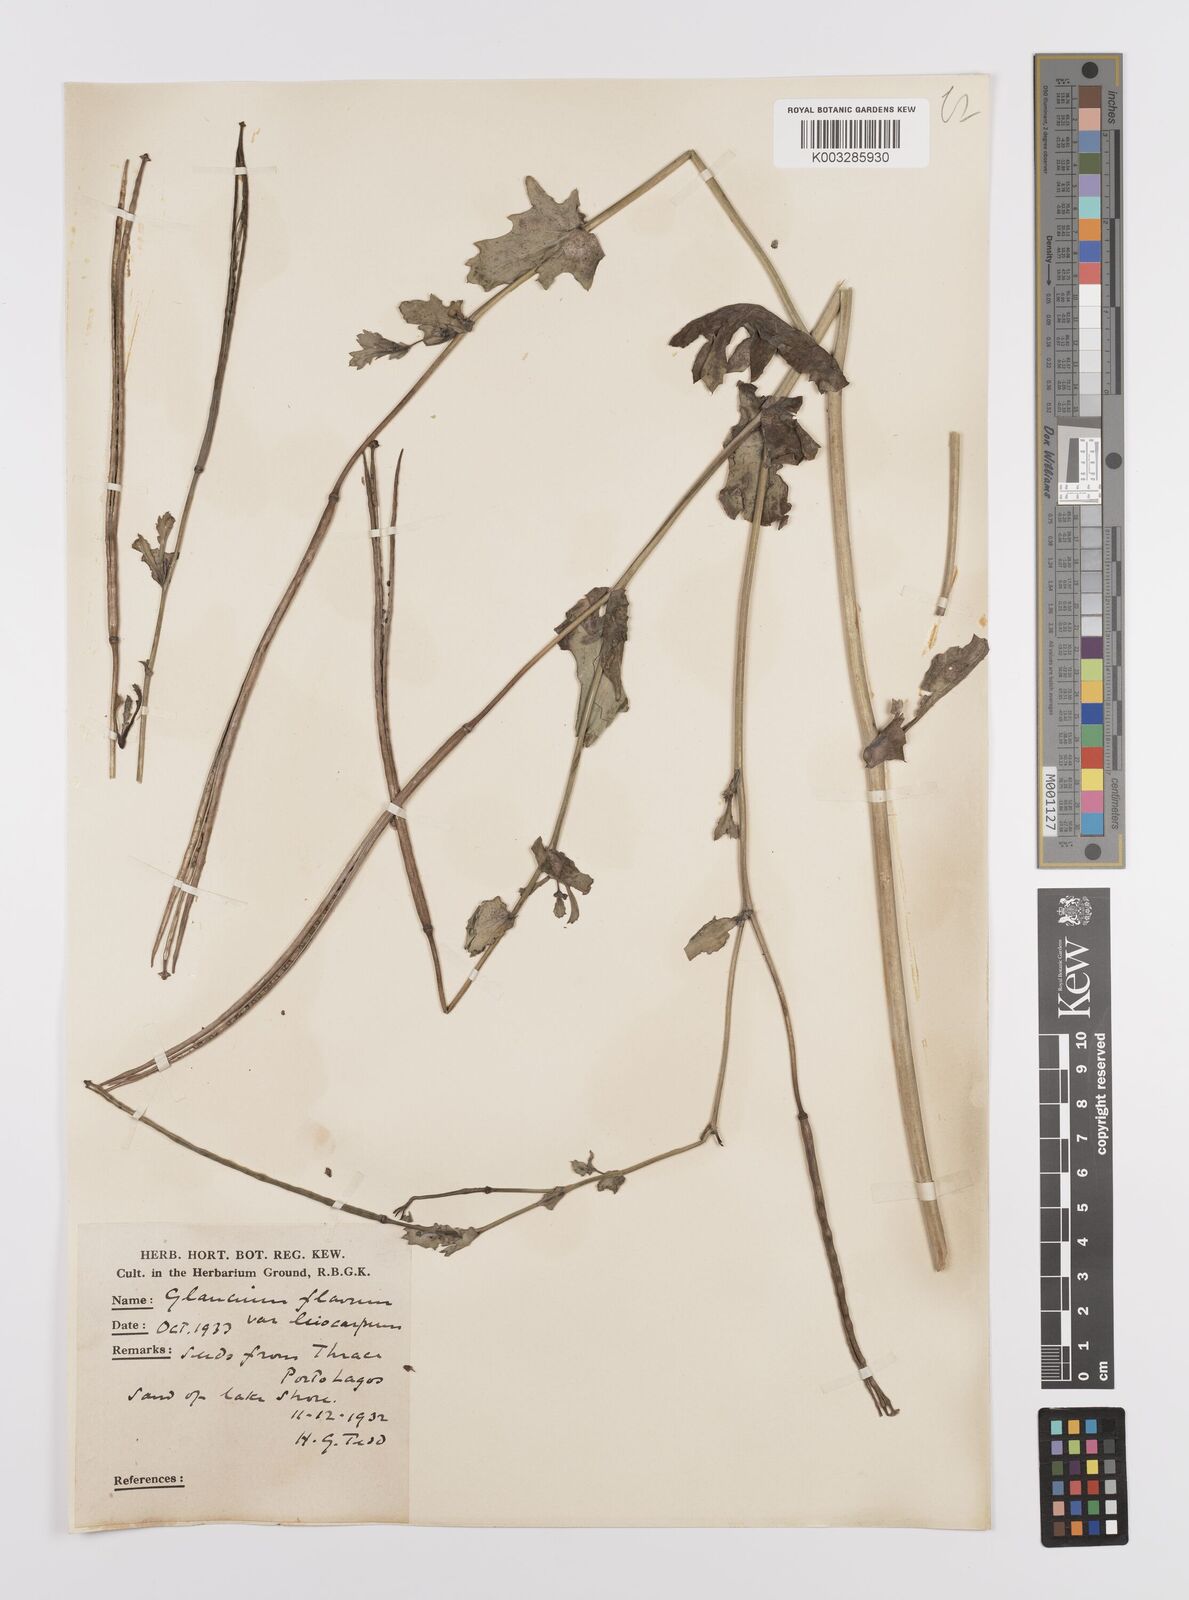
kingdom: Plantae
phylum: Tracheophyta
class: Magnoliopsida
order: Ranunculales
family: Papaveraceae
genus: Glaucium
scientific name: Glaucium flavum
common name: Yellow horned-poppy
